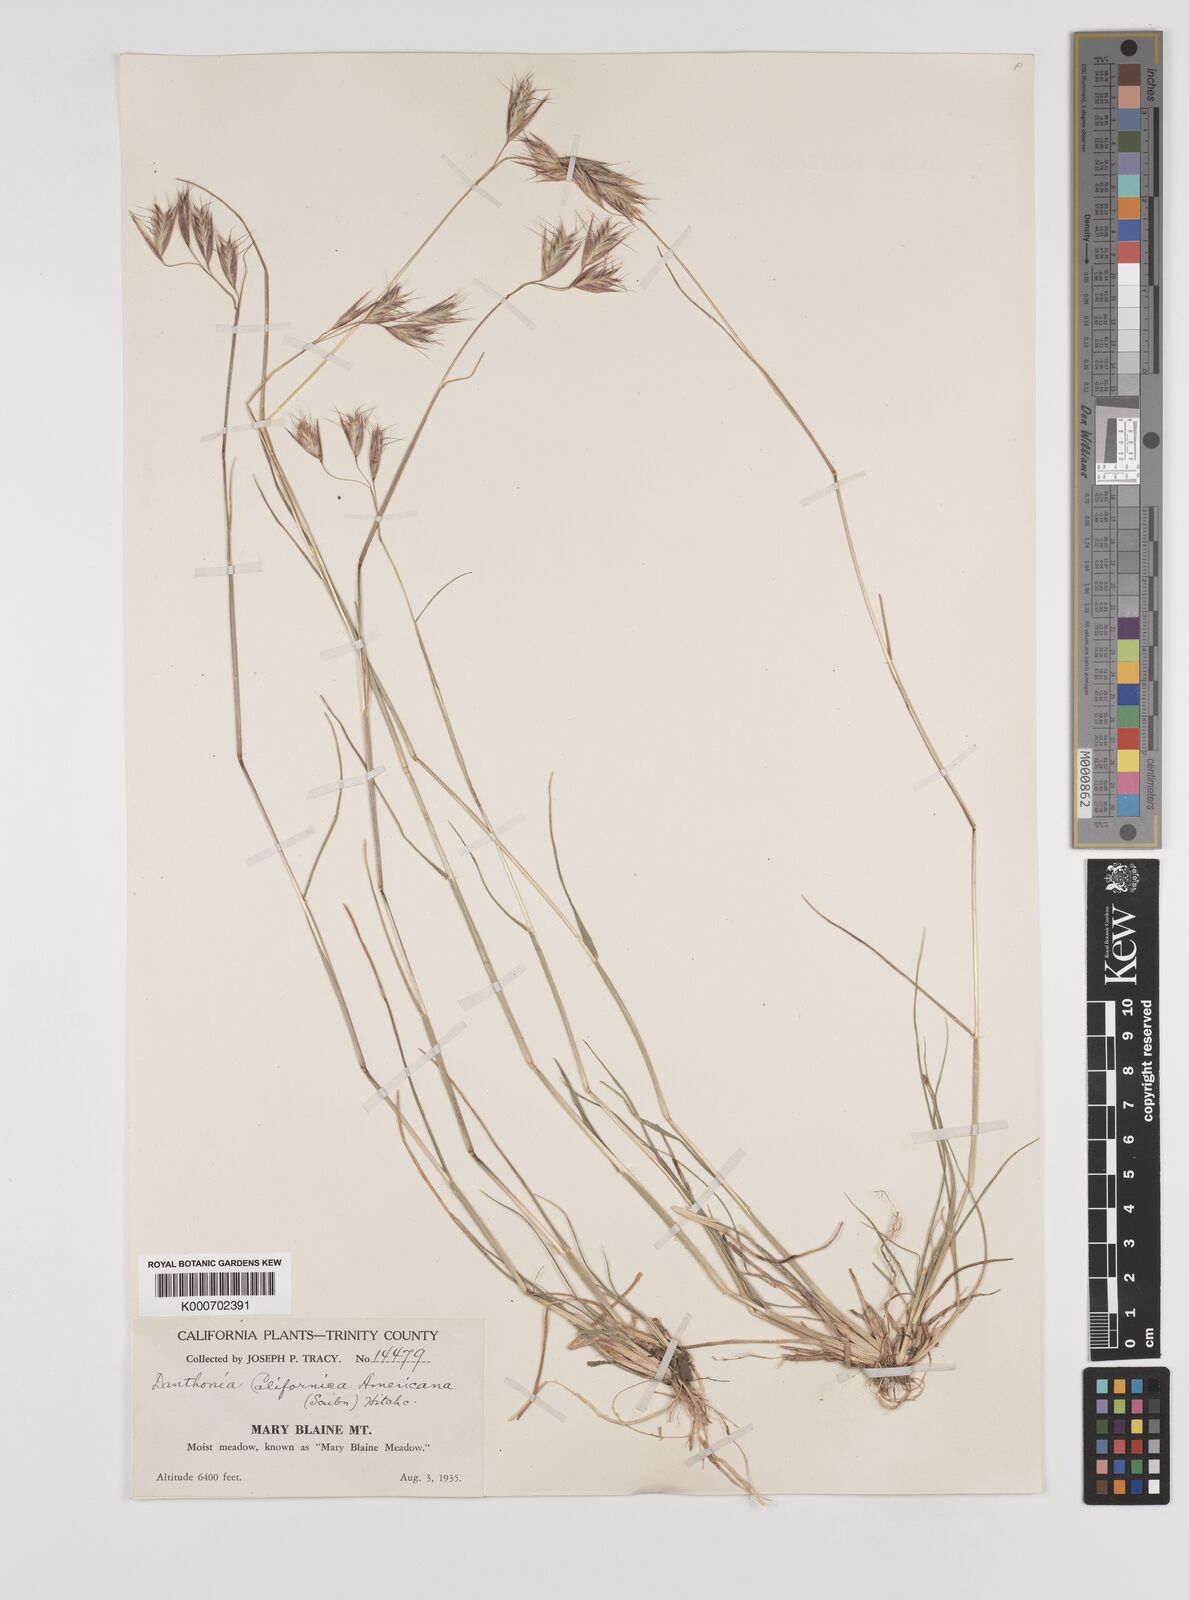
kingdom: Plantae
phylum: Tracheophyta
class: Liliopsida
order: Poales
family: Poaceae
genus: Danthonia
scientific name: Danthonia californica
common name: California oat grass
